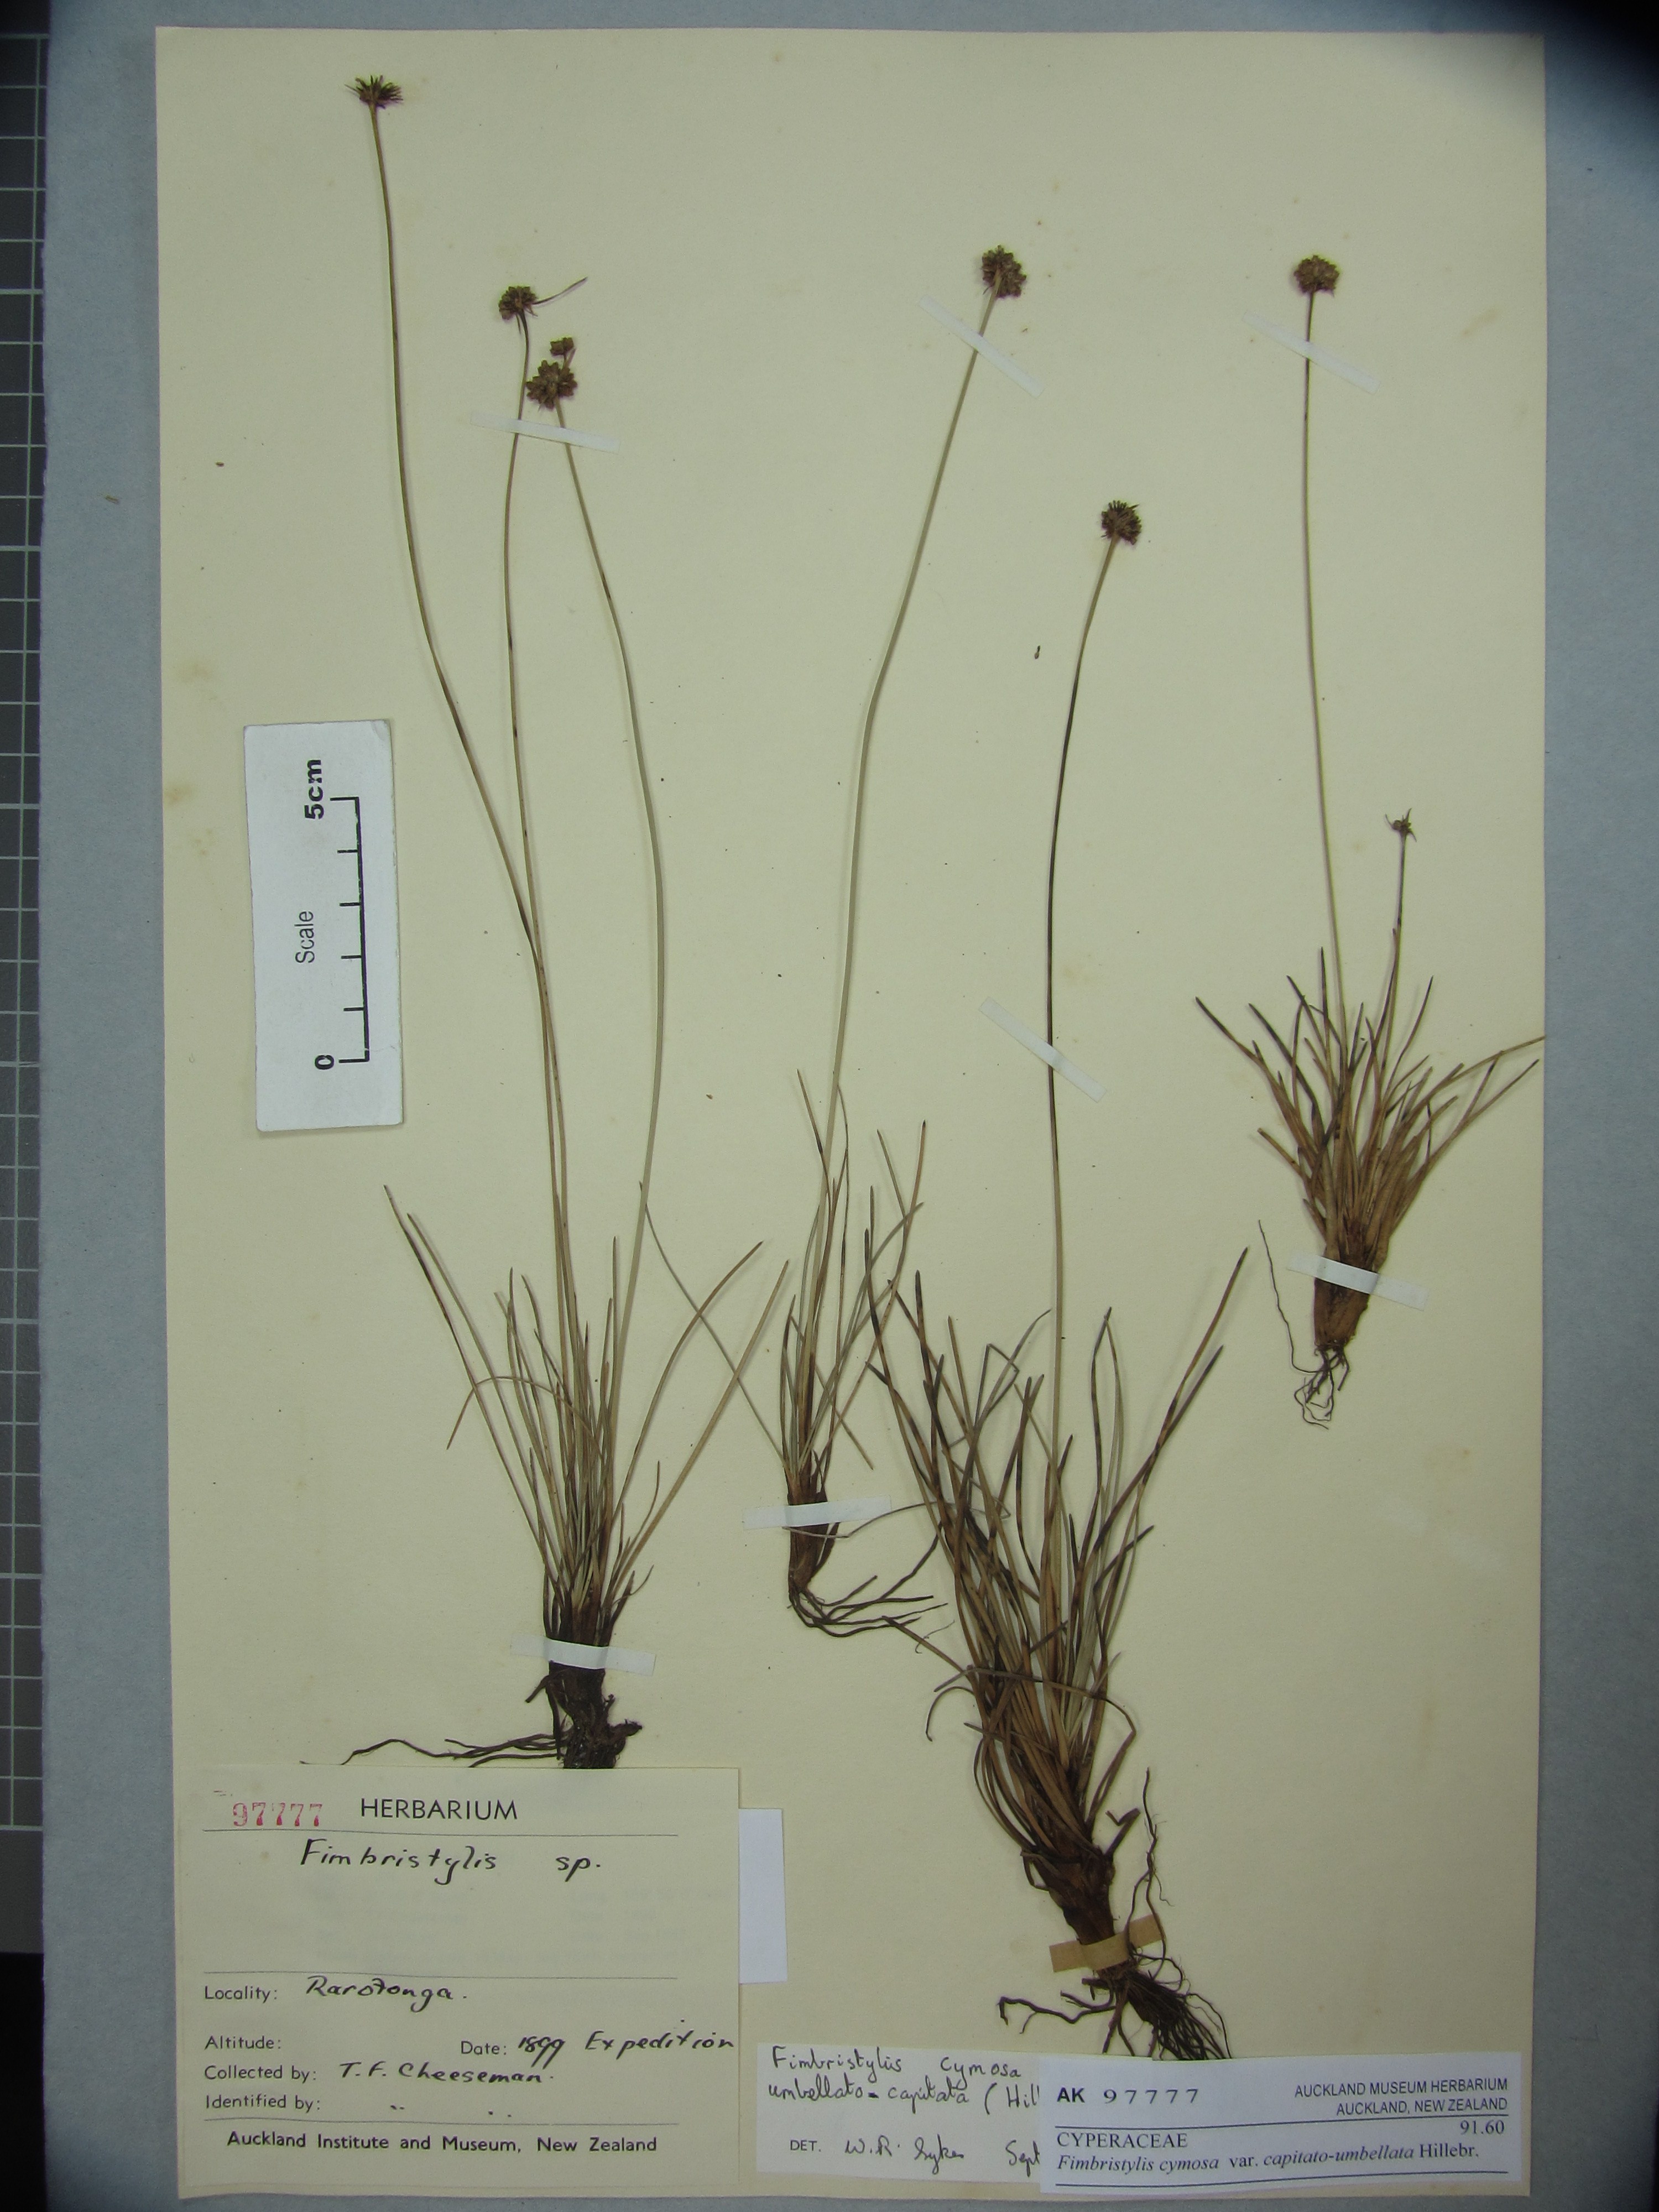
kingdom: Plantae
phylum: Tracheophyta
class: Liliopsida
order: Poales
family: Cyperaceae
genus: Fimbristylis
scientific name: Fimbristylis cymosa
